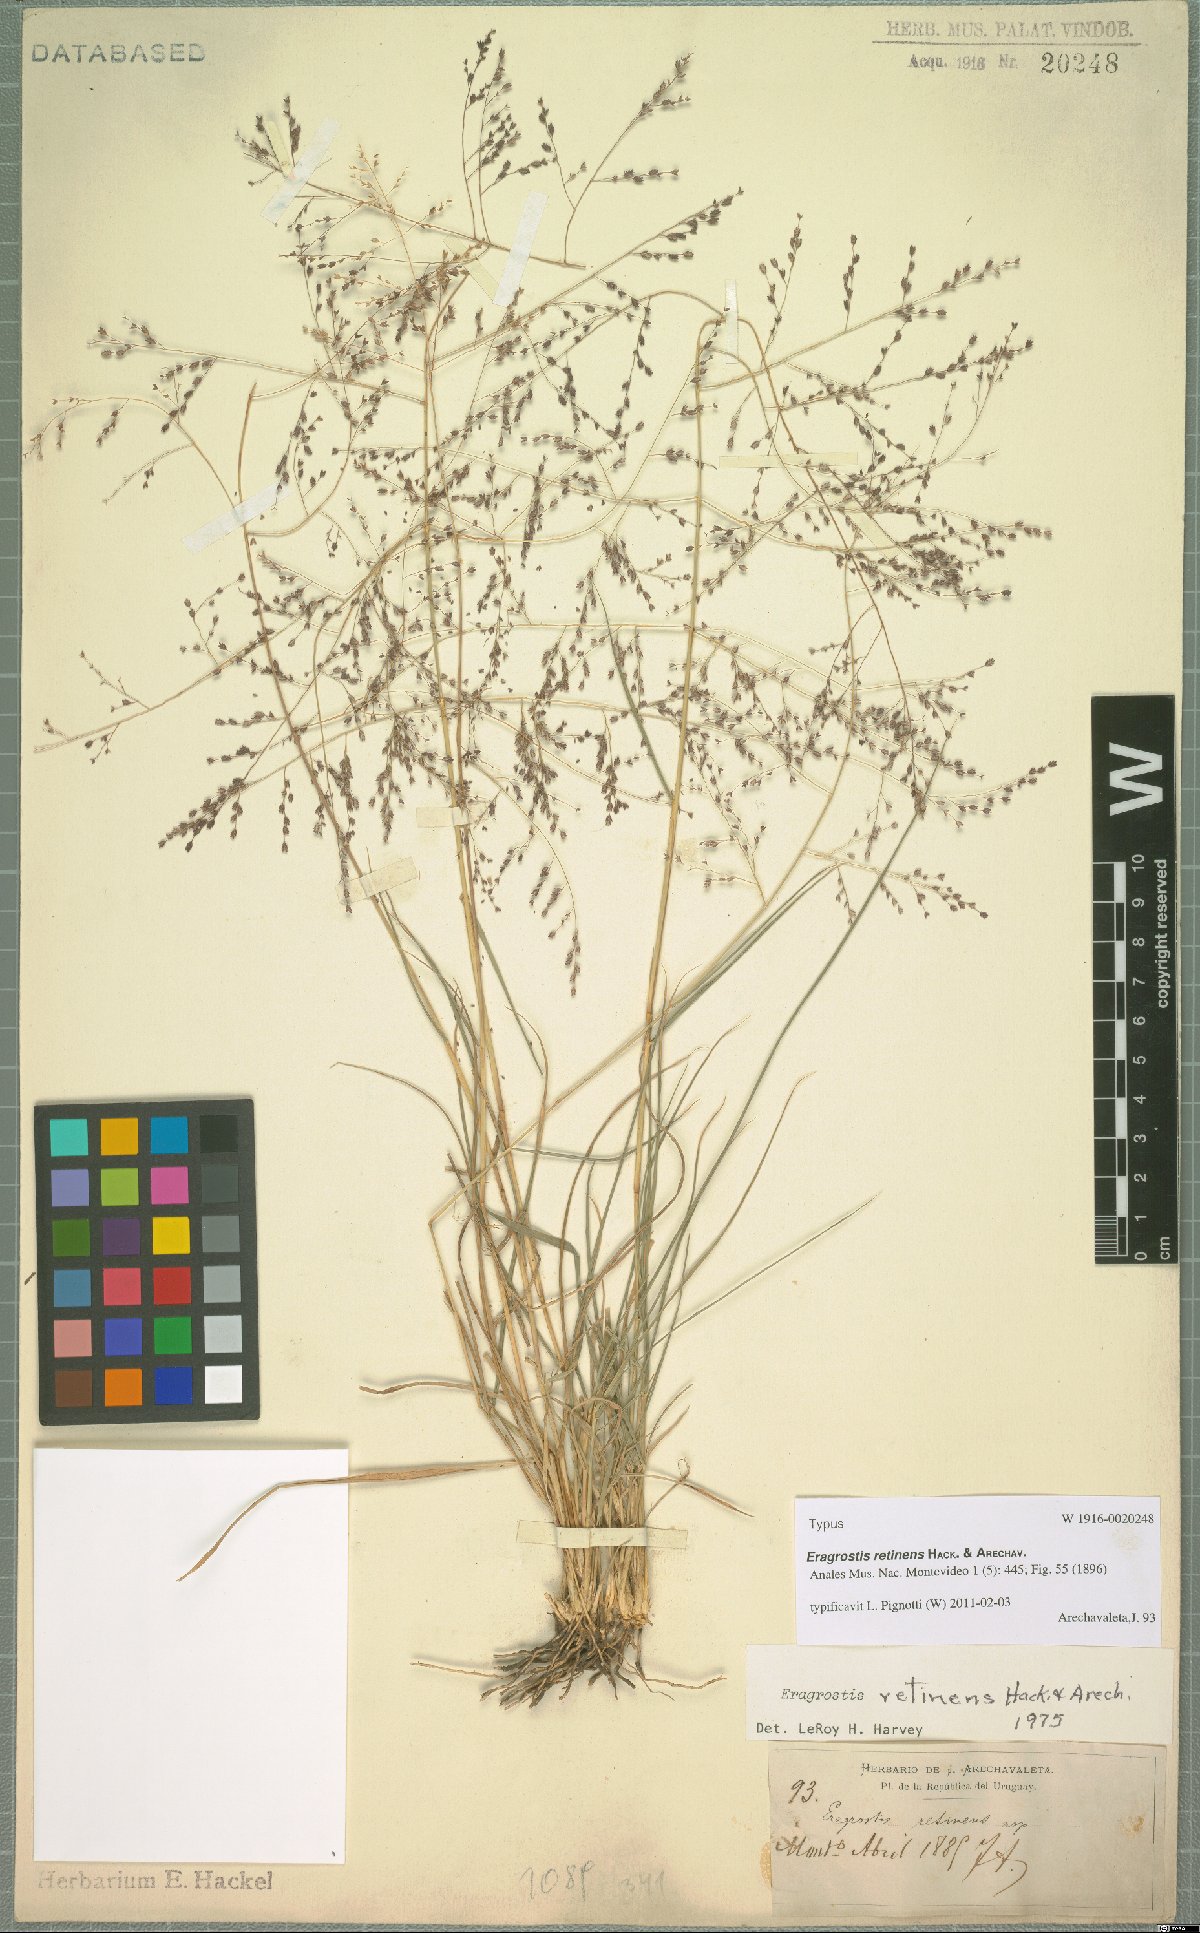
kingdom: Plantae
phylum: Tracheophyta
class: Liliopsida
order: Poales
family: Poaceae
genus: Eragrostis
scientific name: Eragrostis retinens
